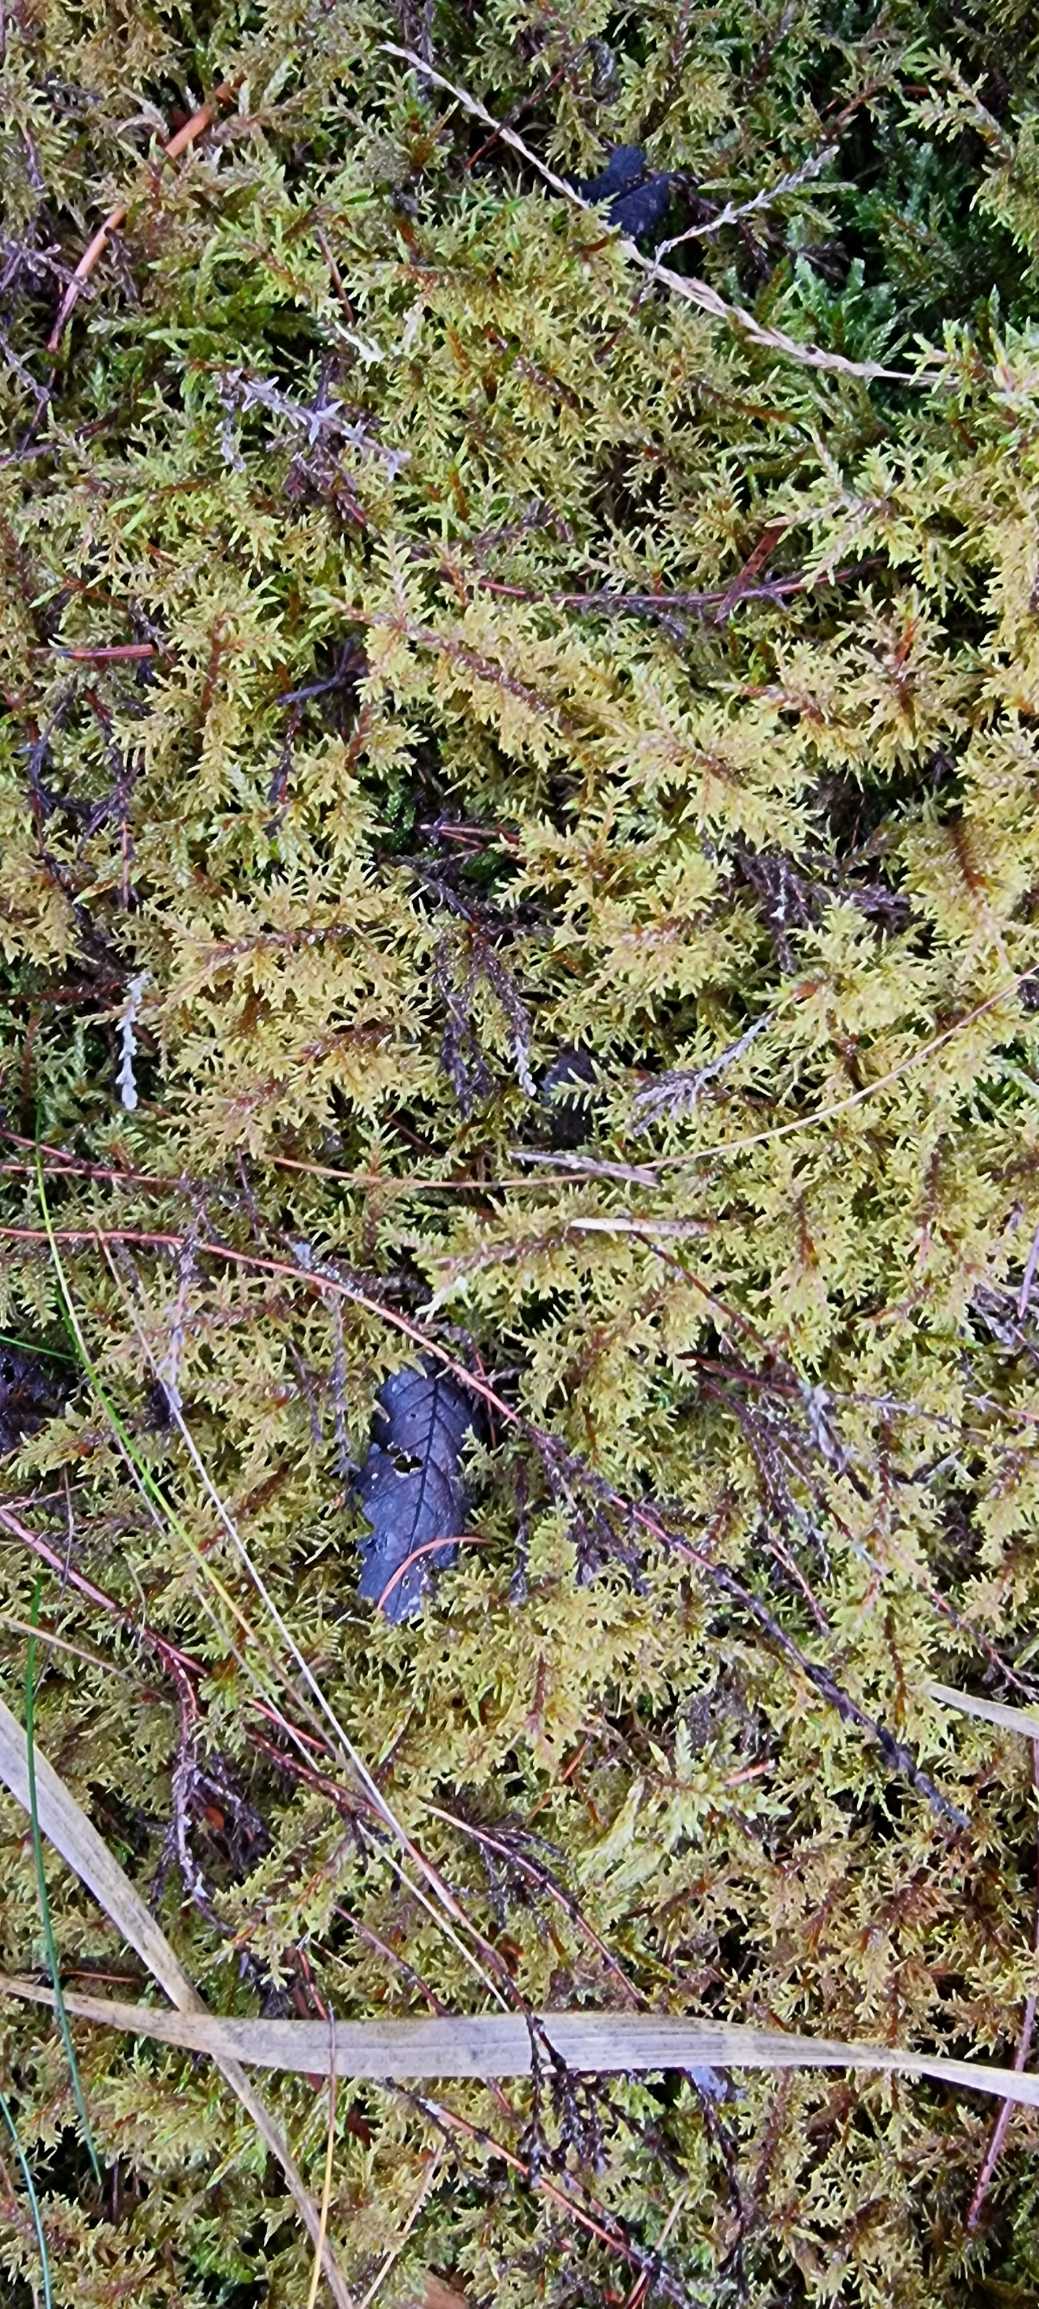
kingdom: Plantae
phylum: Bryophyta
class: Bryopsida
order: Hypnales
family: Hylocomiaceae
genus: Hylocomium
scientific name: Hylocomium splendens
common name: Almindelig etagemos
